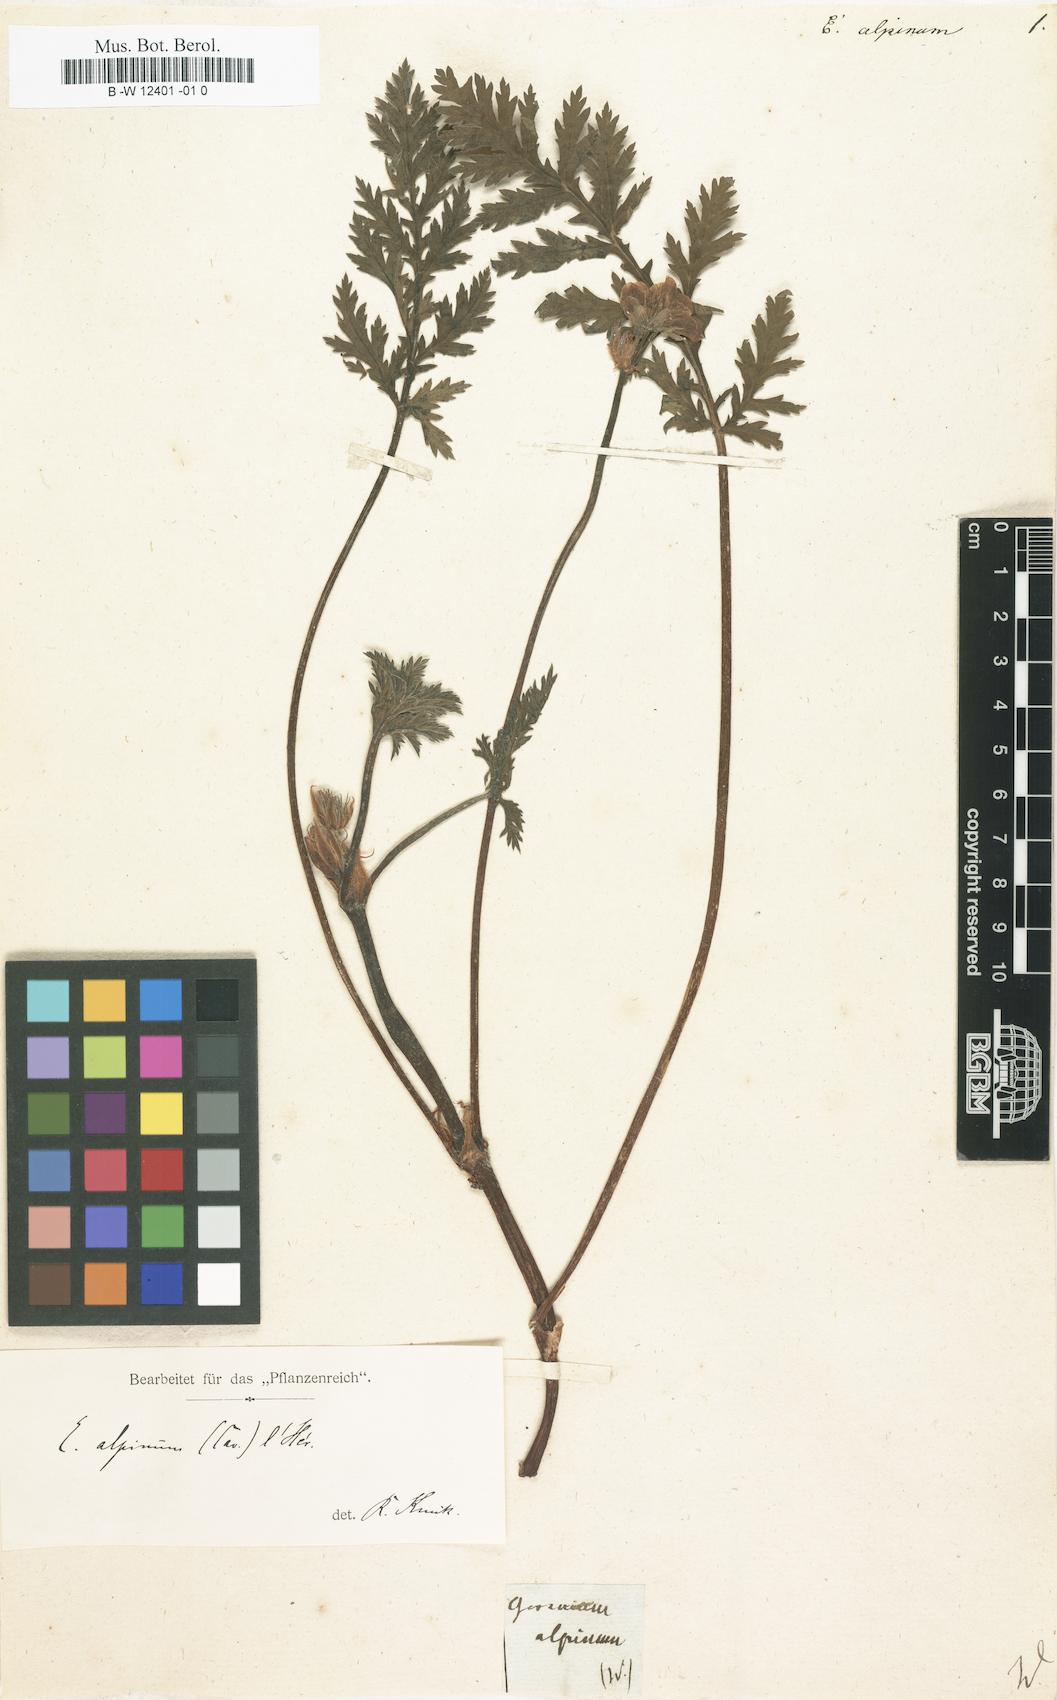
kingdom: Plantae
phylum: Tracheophyta
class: Magnoliopsida
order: Geraniales
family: Geraniaceae
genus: Erodium
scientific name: Erodium alpinum
